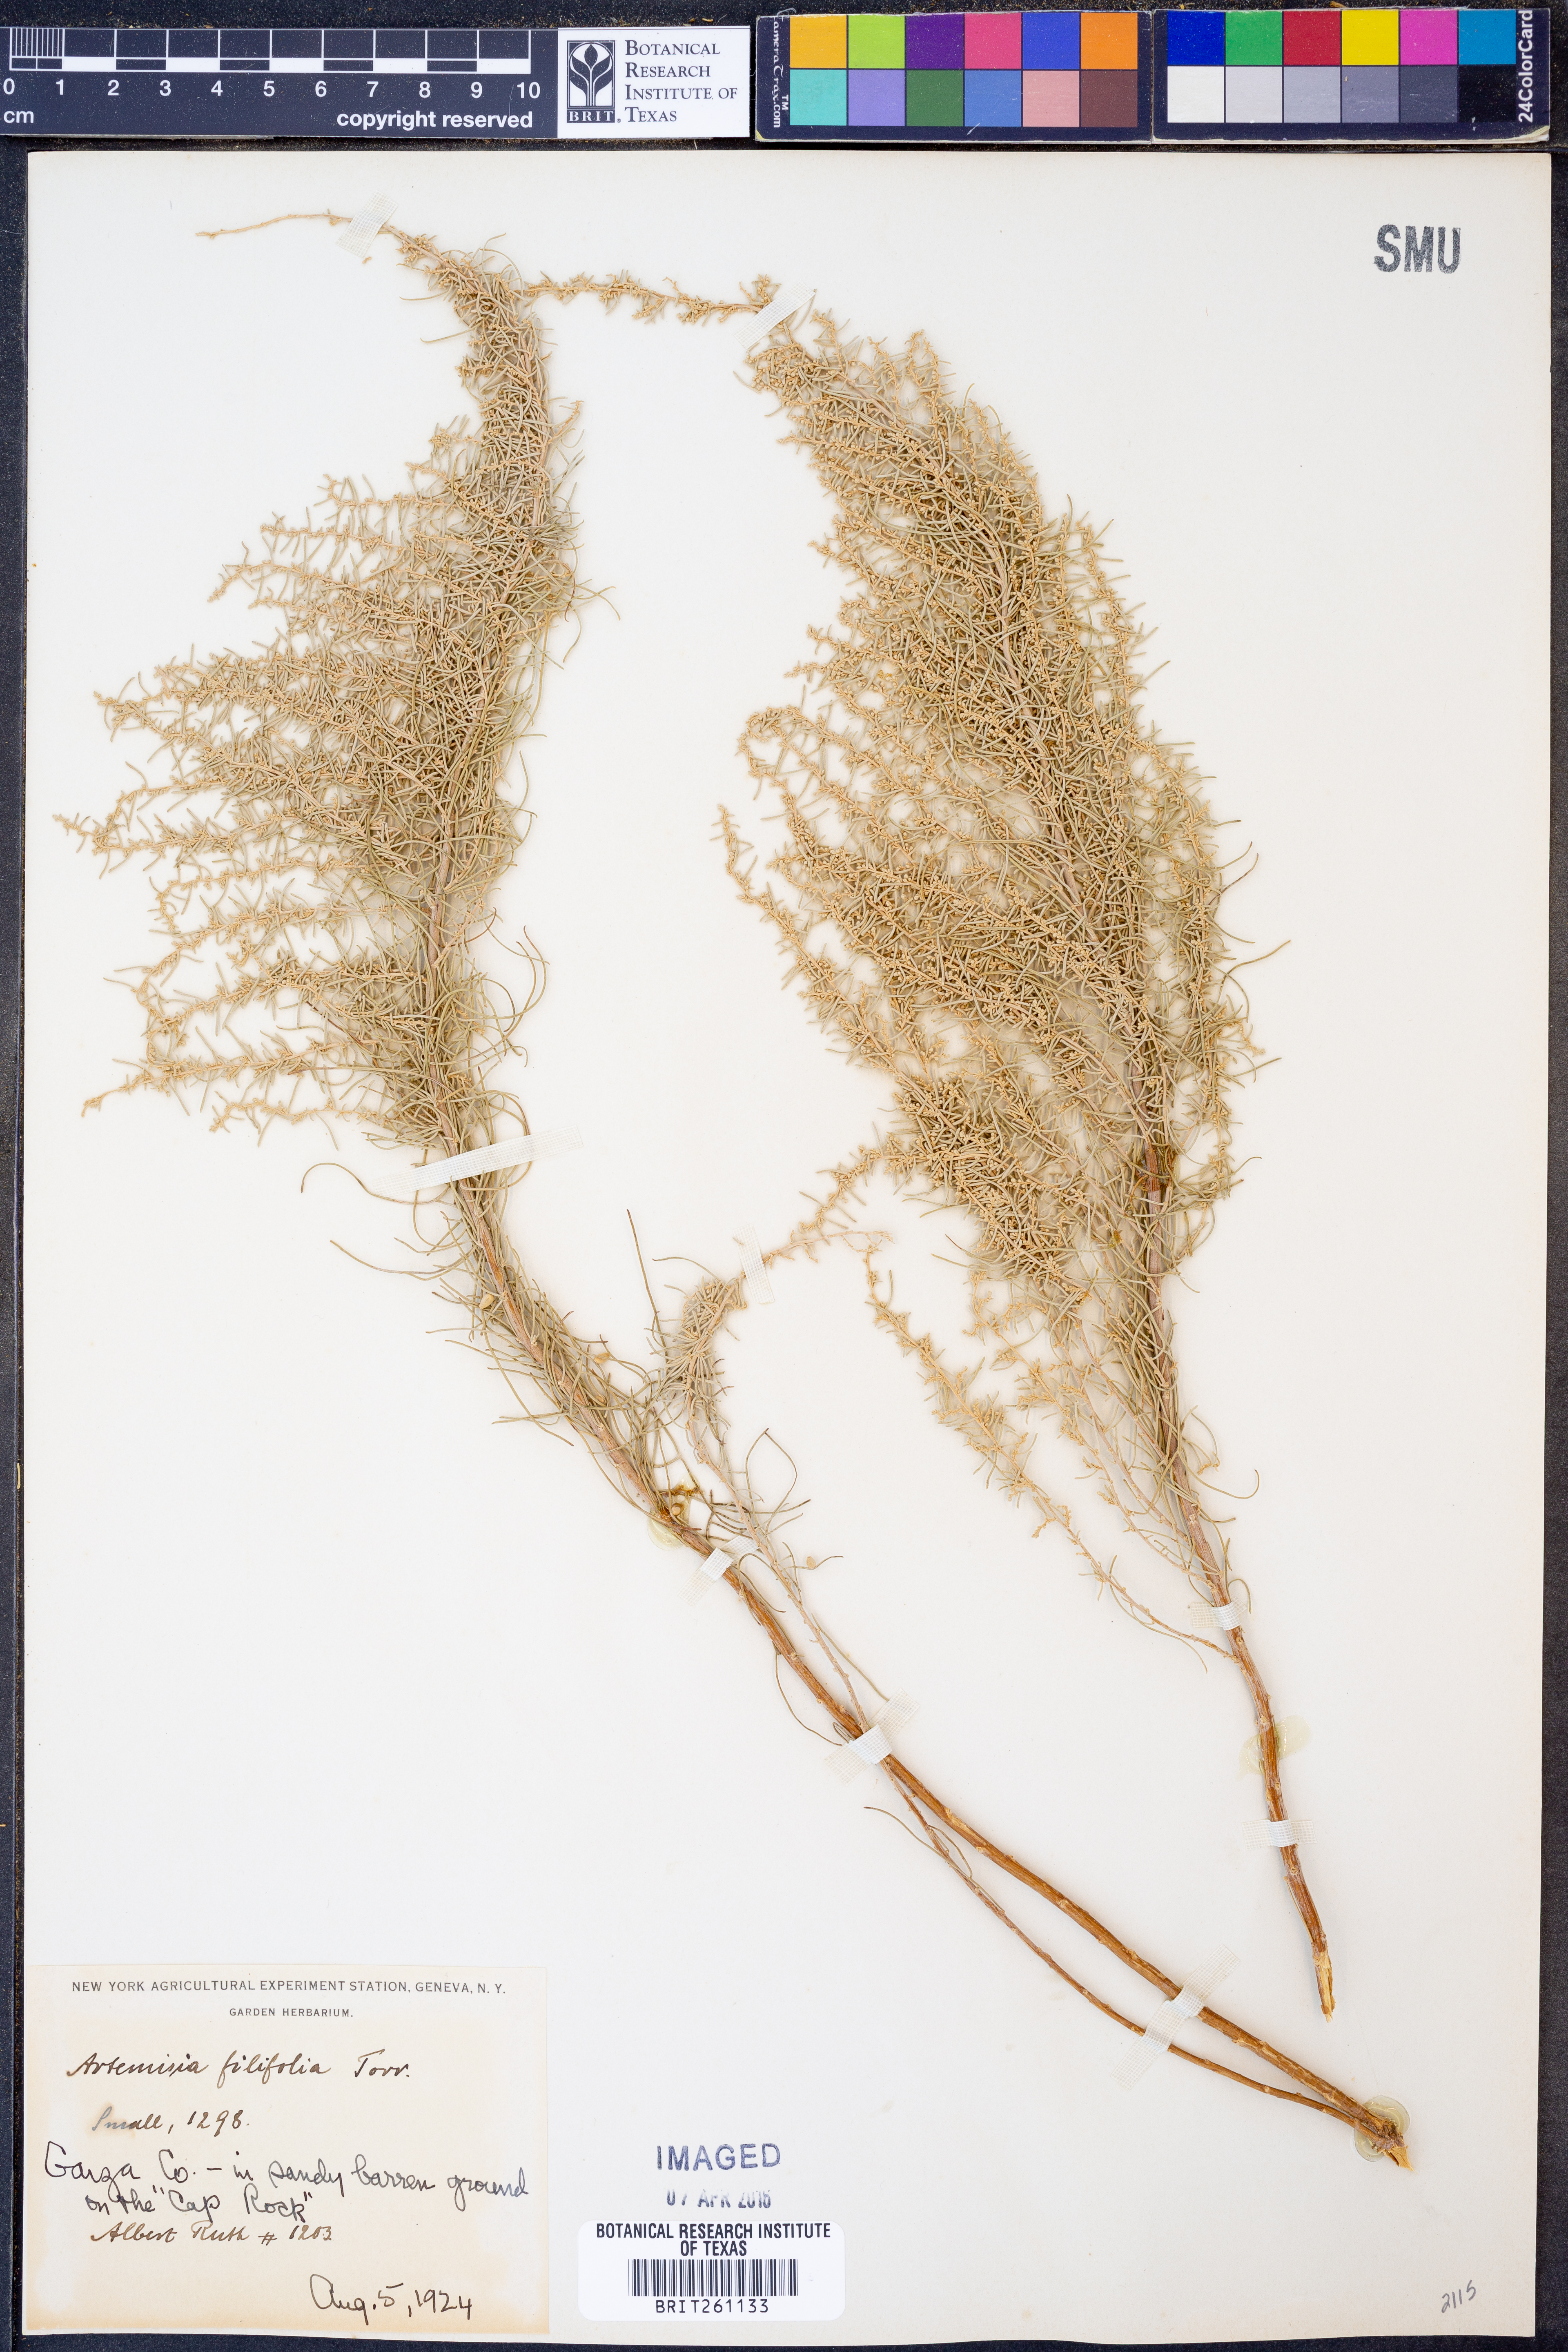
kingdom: Plantae
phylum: Tracheophyta
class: Magnoliopsida
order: Asterales
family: Asteraceae
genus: Artemisia
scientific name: Artemisia filifolia
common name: Sand-sage
